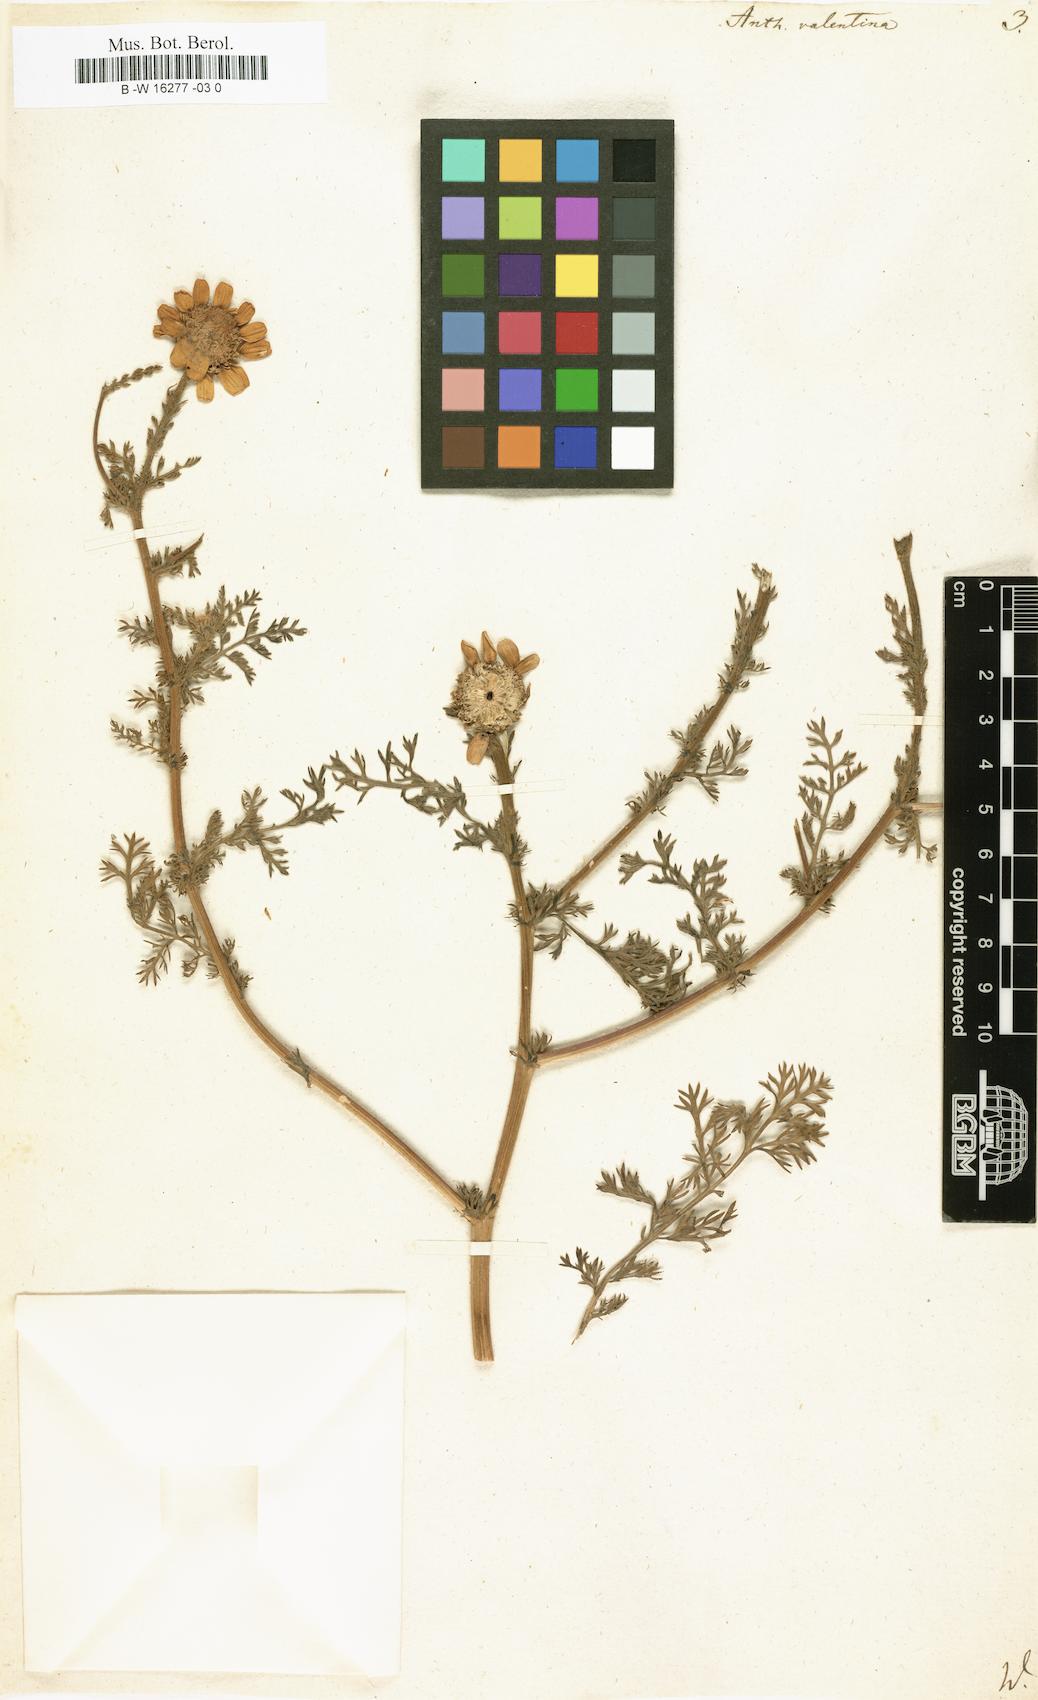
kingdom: Plantae
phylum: Tracheophyta
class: Magnoliopsida
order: Asterales
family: Asteraceae
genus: Anacyclus
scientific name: Anacyclus radiatus
